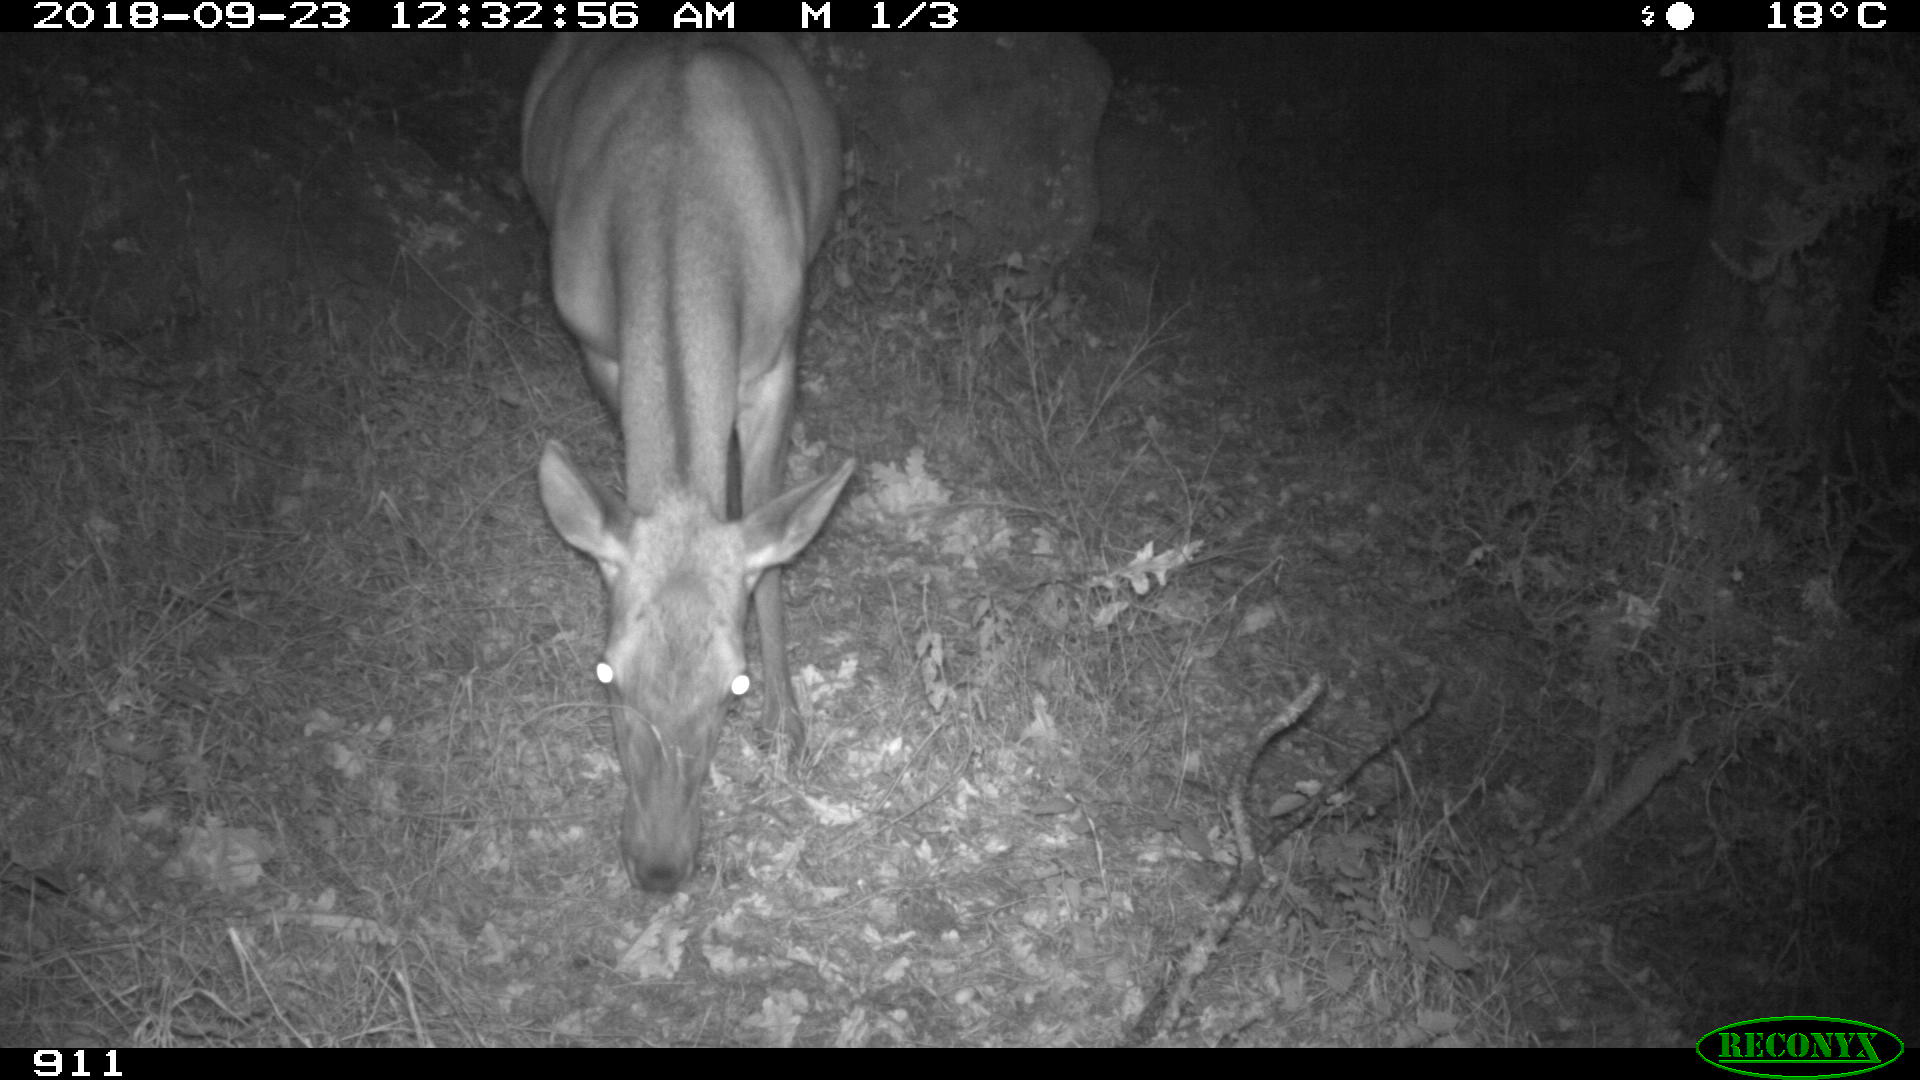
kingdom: Animalia
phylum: Chordata
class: Mammalia
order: Artiodactyla
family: Cervidae
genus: Cervus
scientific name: Cervus elaphus
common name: Red deer
